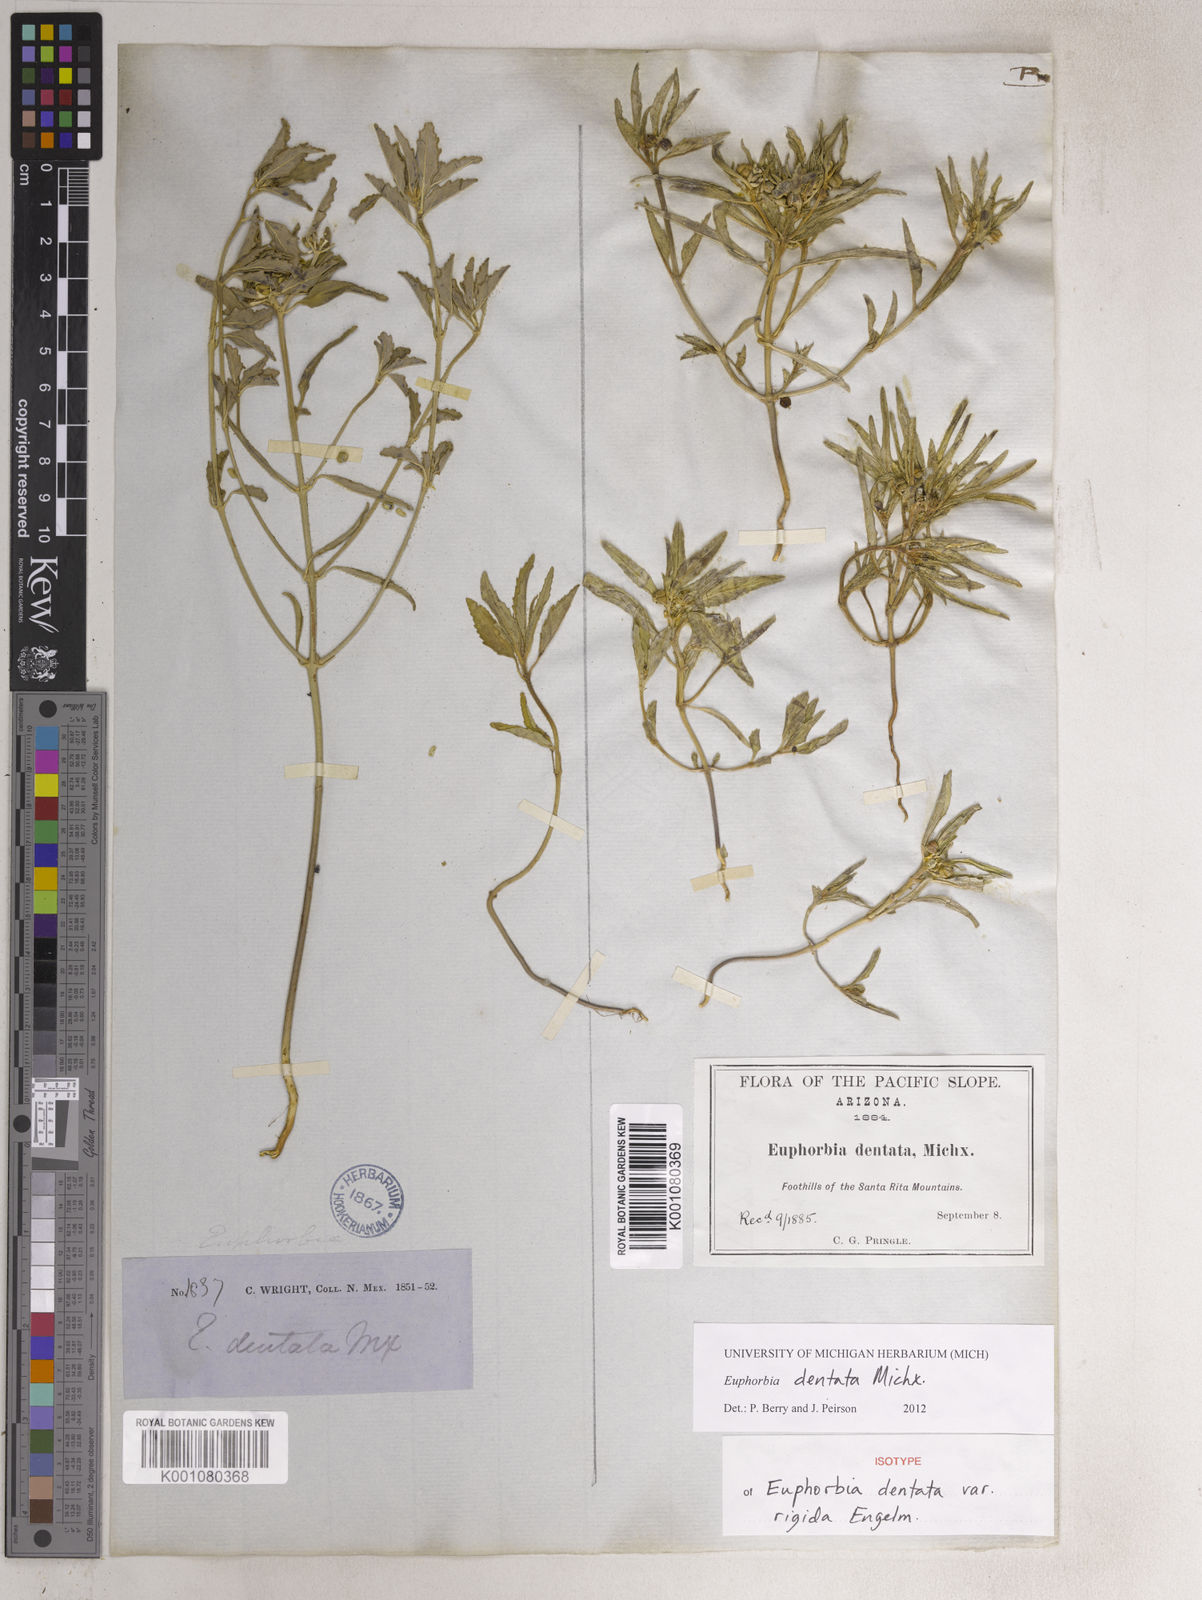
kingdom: Plantae
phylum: Tracheophyta
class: Magnoliopsida
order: Malpighiales
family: Euphorbiaceae
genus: Euphorbia
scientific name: Euphorbia dentata
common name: Dentate spurge
